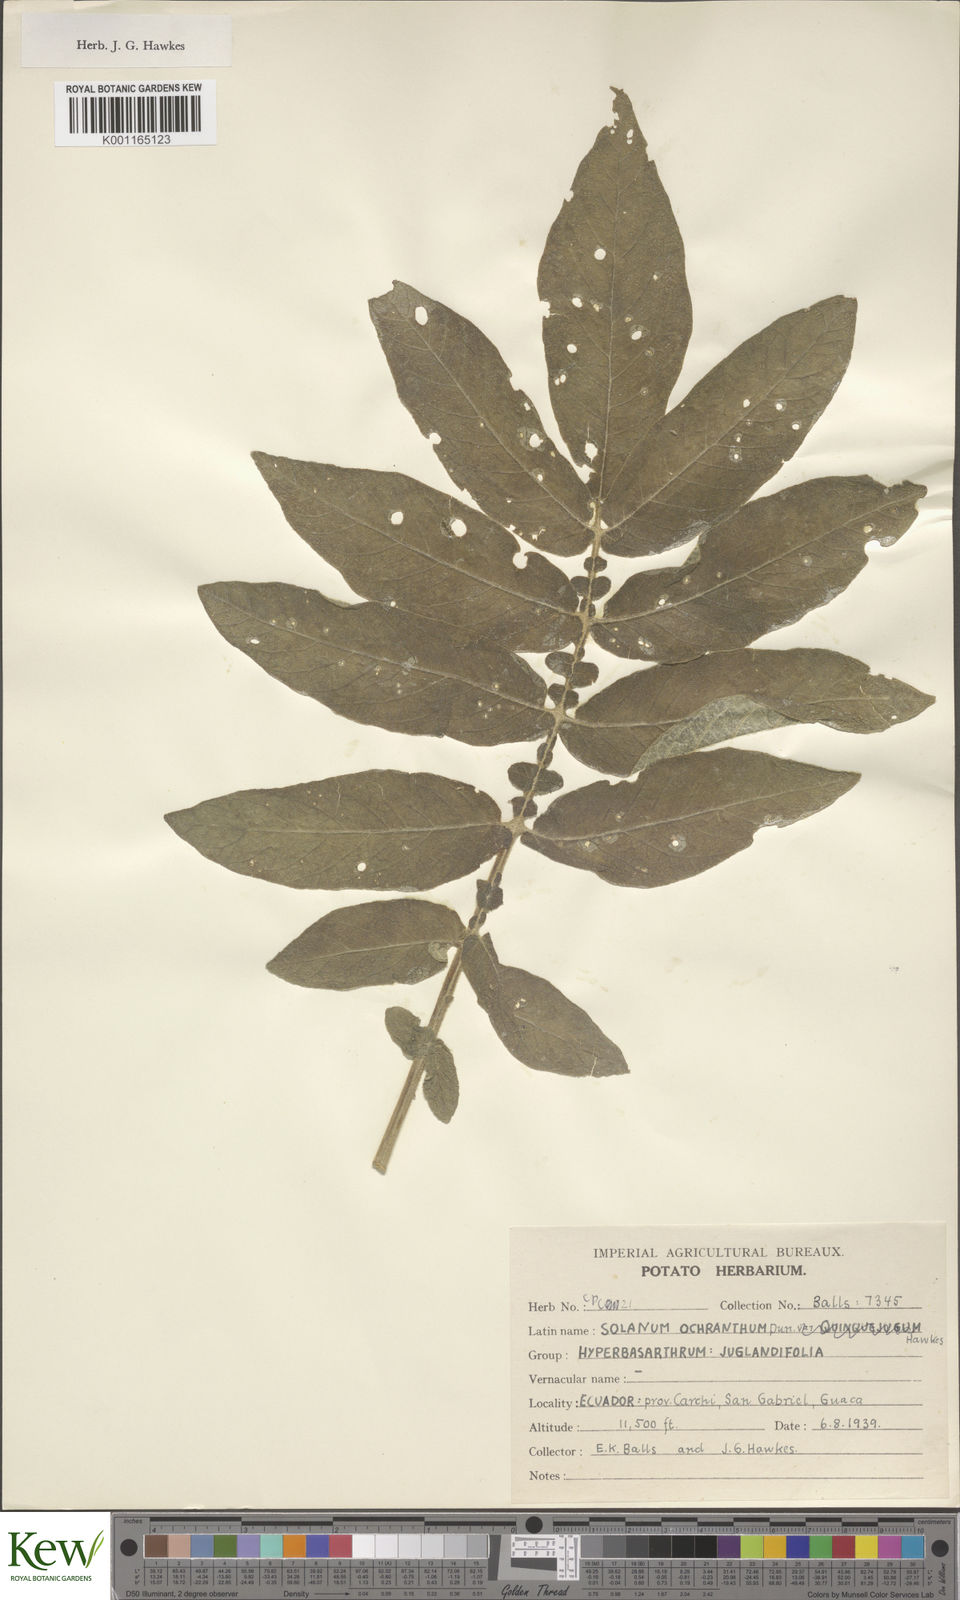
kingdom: Plantae
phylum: Tracheophyta
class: Magnoliopsida
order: Solanales
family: Solanaceae
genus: Solanum
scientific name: Solanum ochranthum
